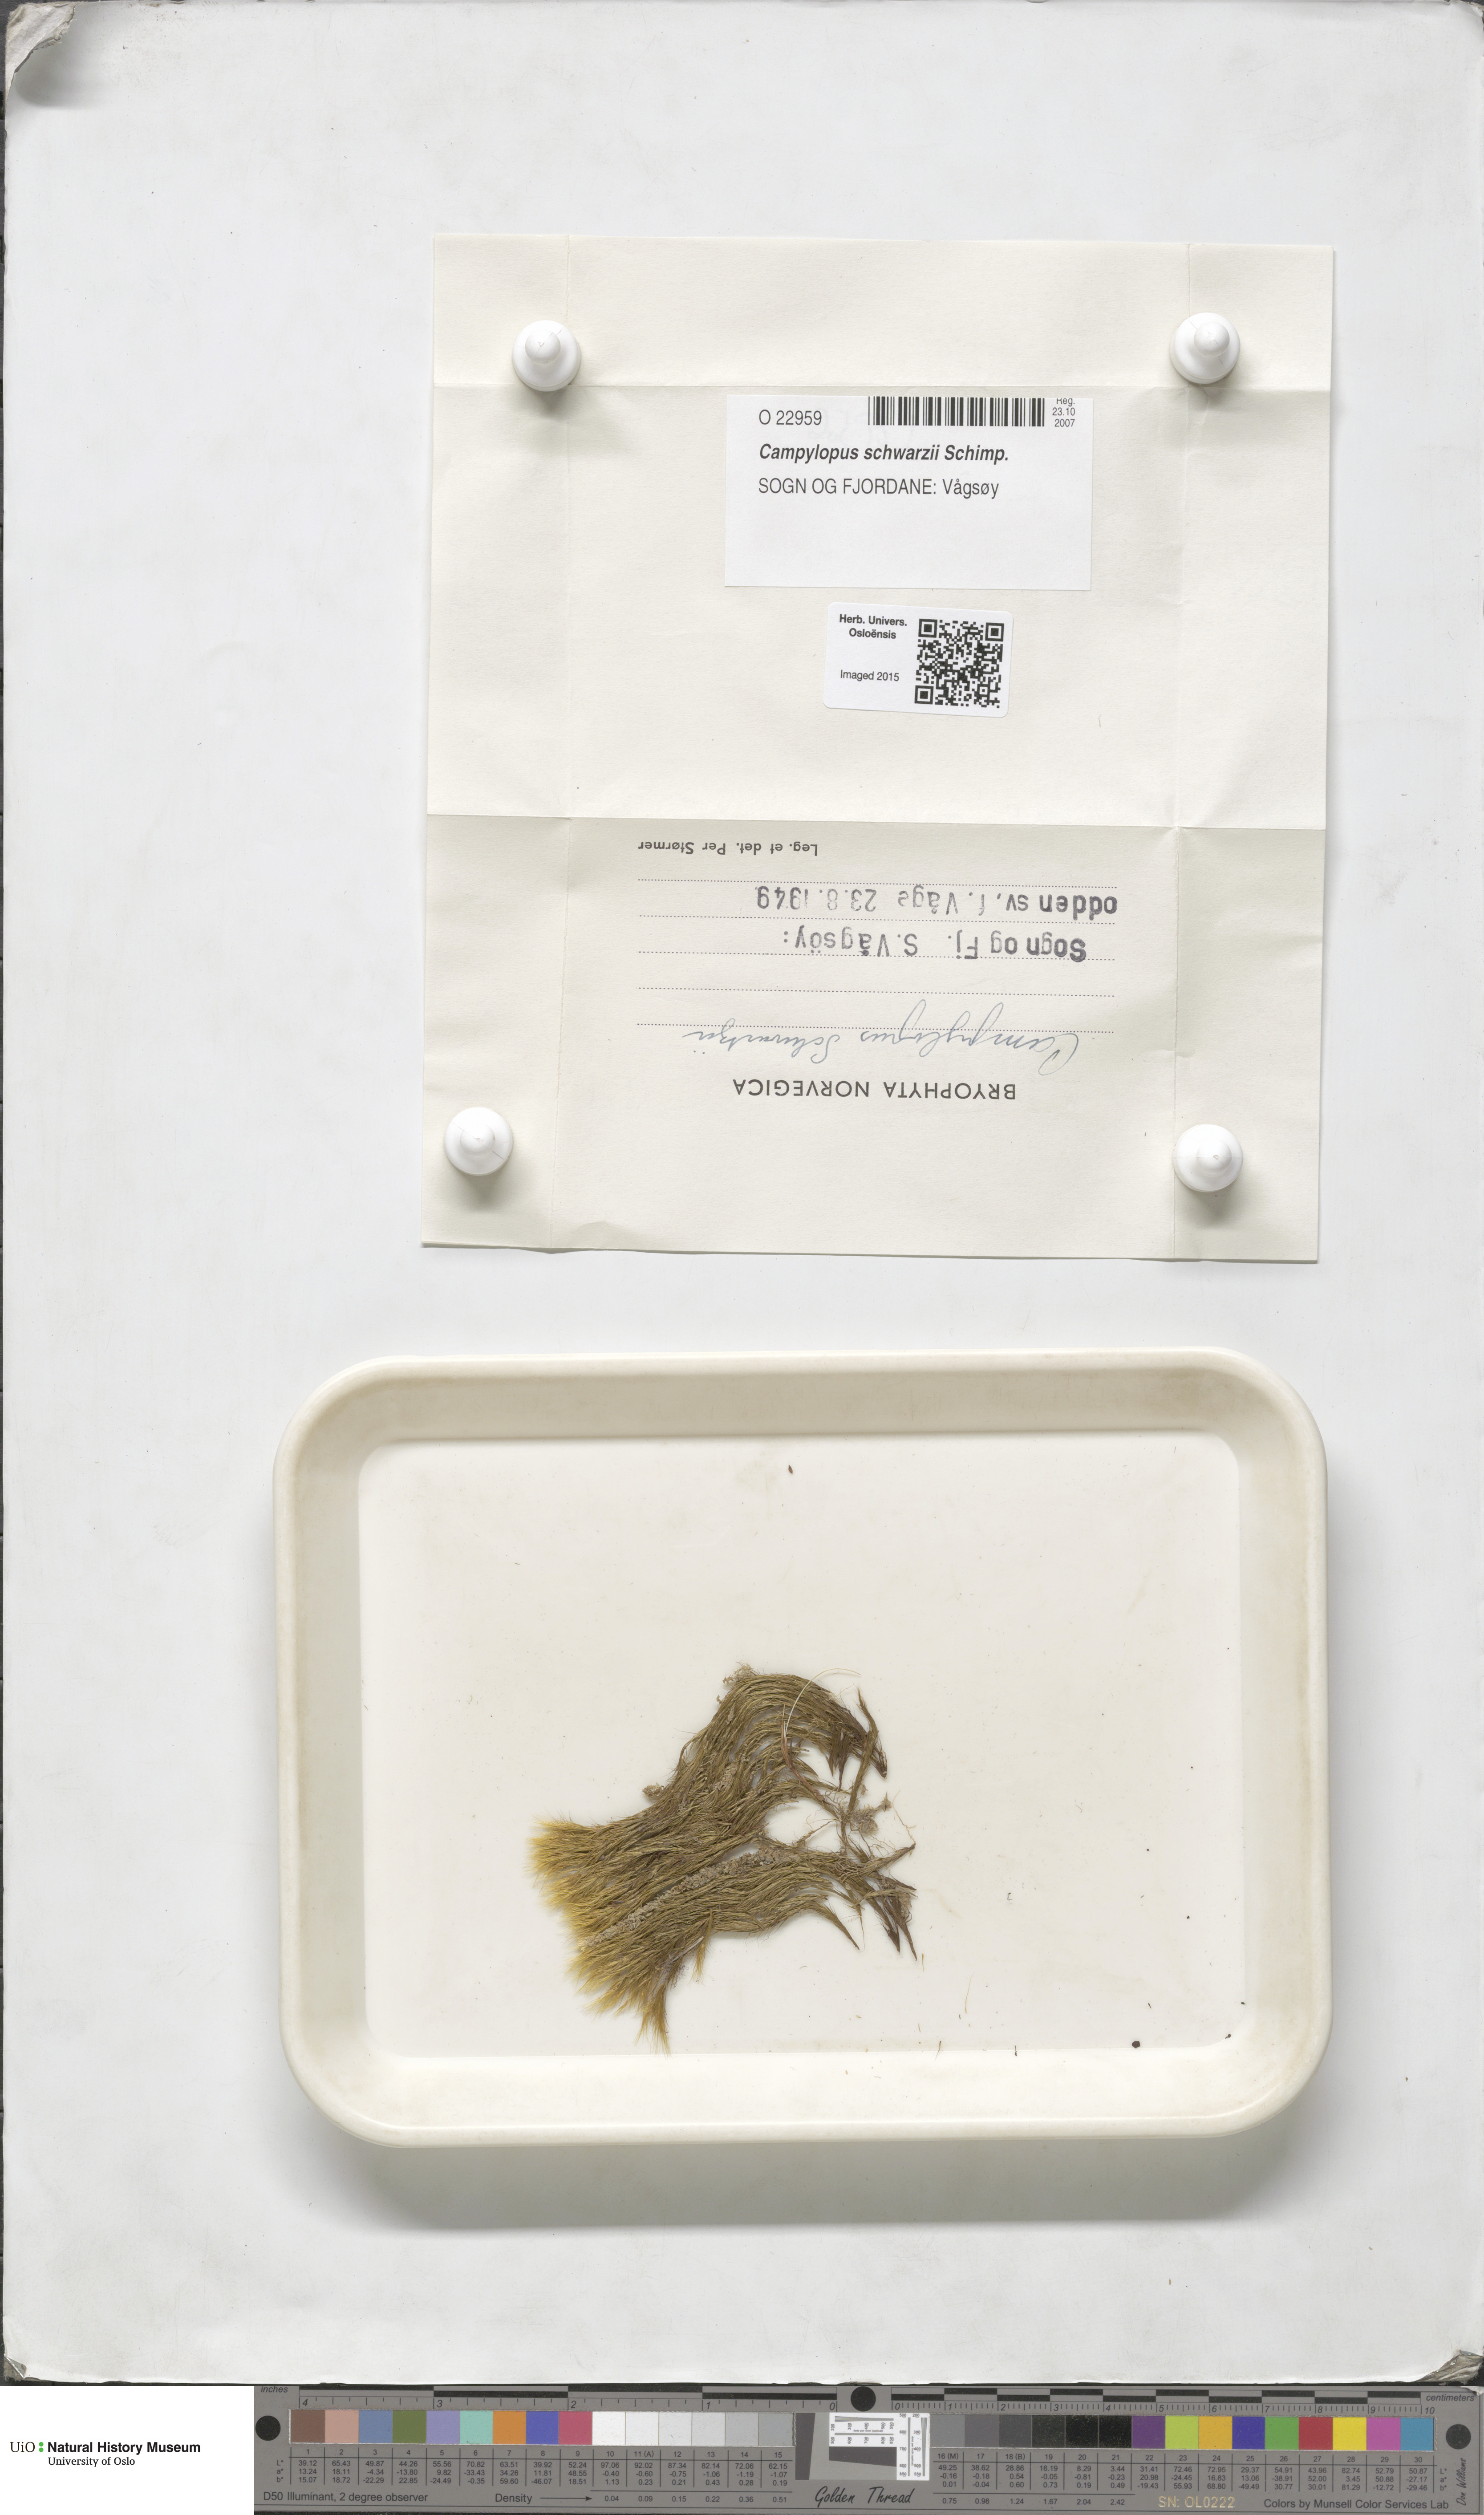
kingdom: Plantae
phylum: Bryophyta
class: Bryopsida
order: Dicranales
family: Leucobryaceae
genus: Campylopus
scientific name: Campylopus gracilis
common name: Schwarz's swan-neck moss
